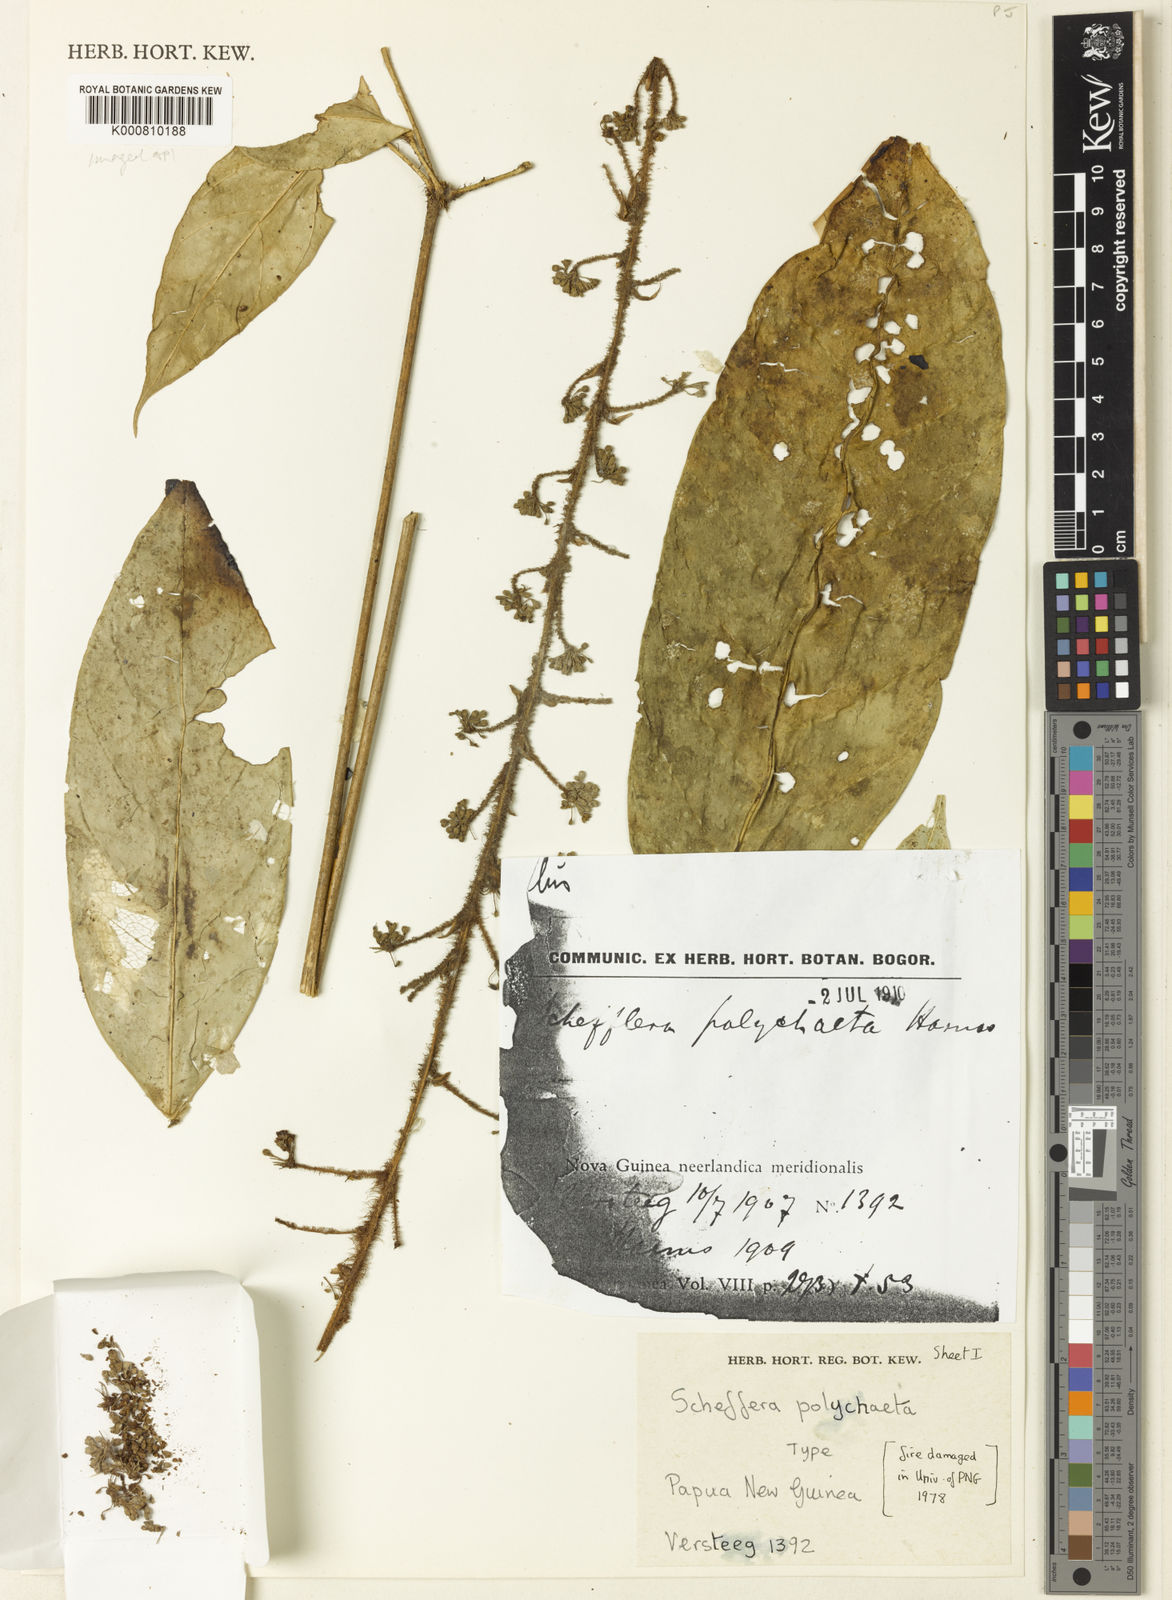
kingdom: Plantae
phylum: Tracheophyta
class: Magnoliopsida
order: Apiales
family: Araliaceae
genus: Heptapleurum
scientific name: Heptapleurum polychaetum
